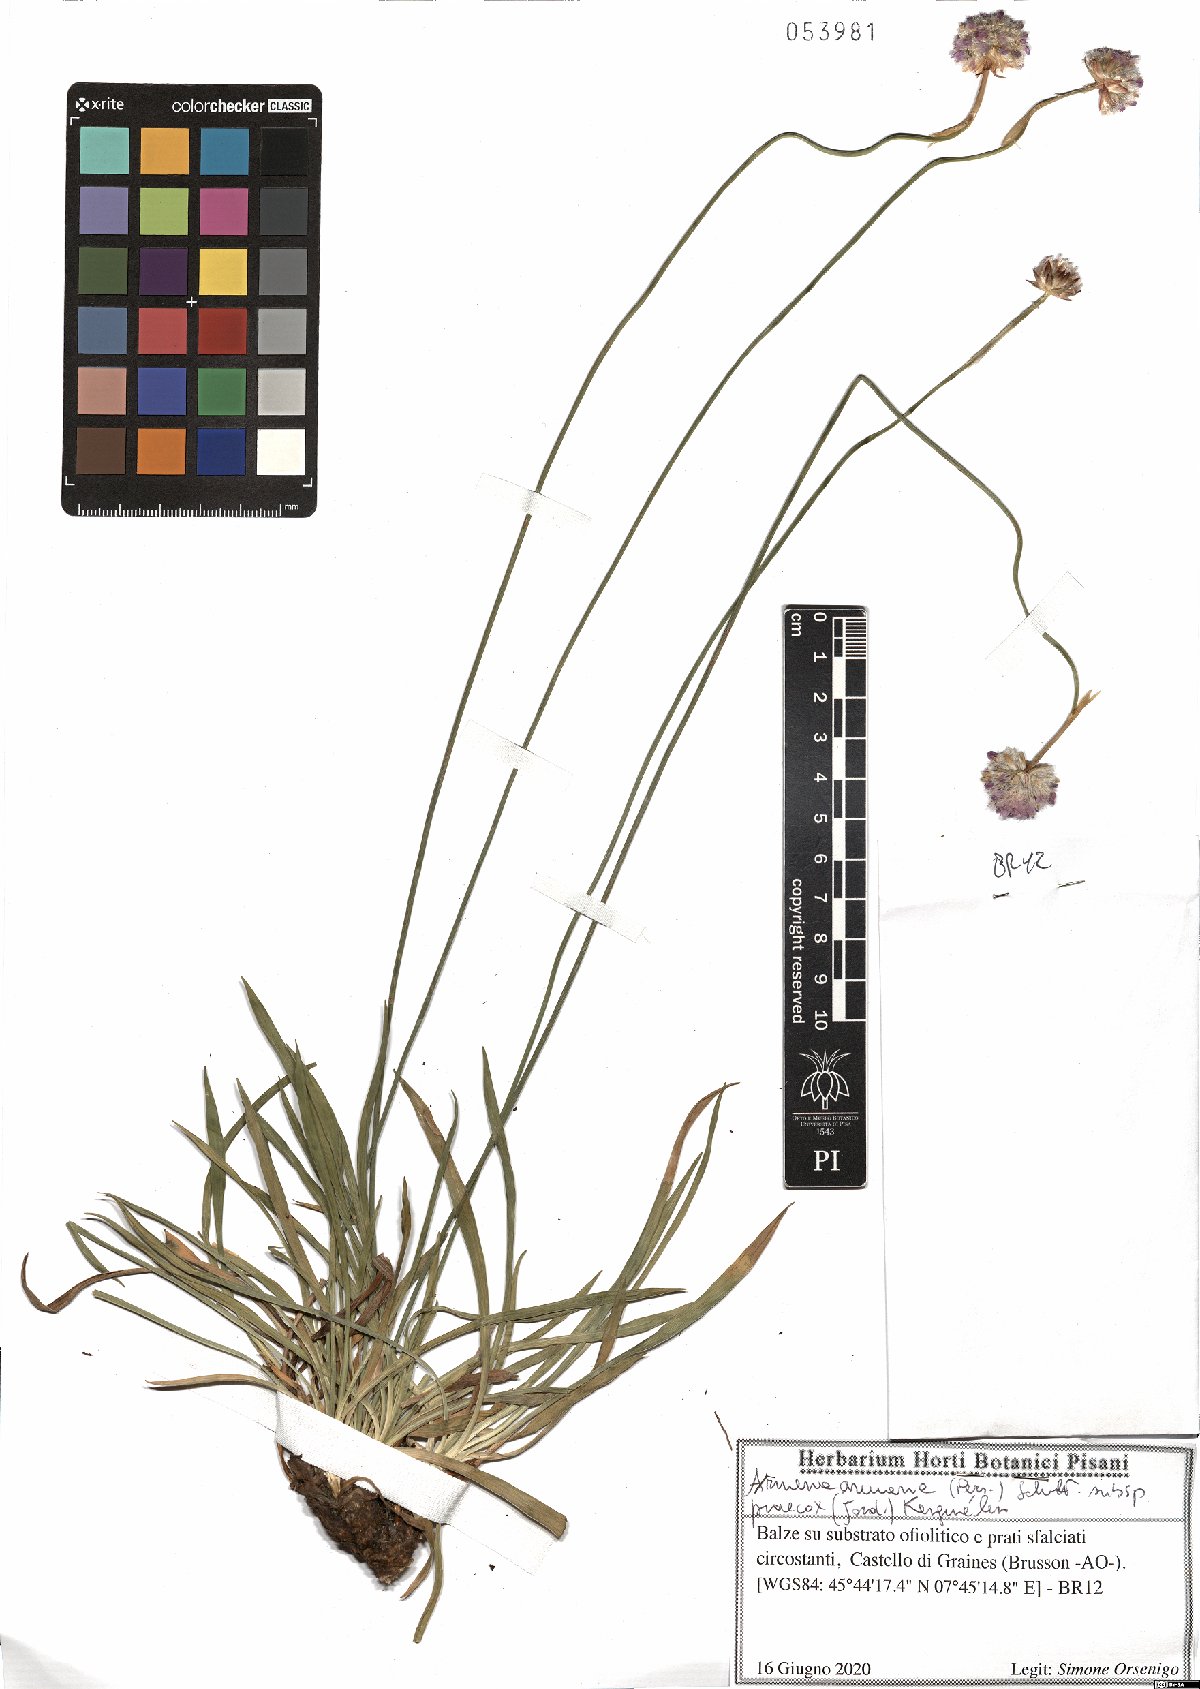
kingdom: Plantae
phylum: Tracheophyta
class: Magnoliopsida
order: Caryophyllales
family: Plumbaginaceae
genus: Armeria
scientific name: Armeria arenaria
